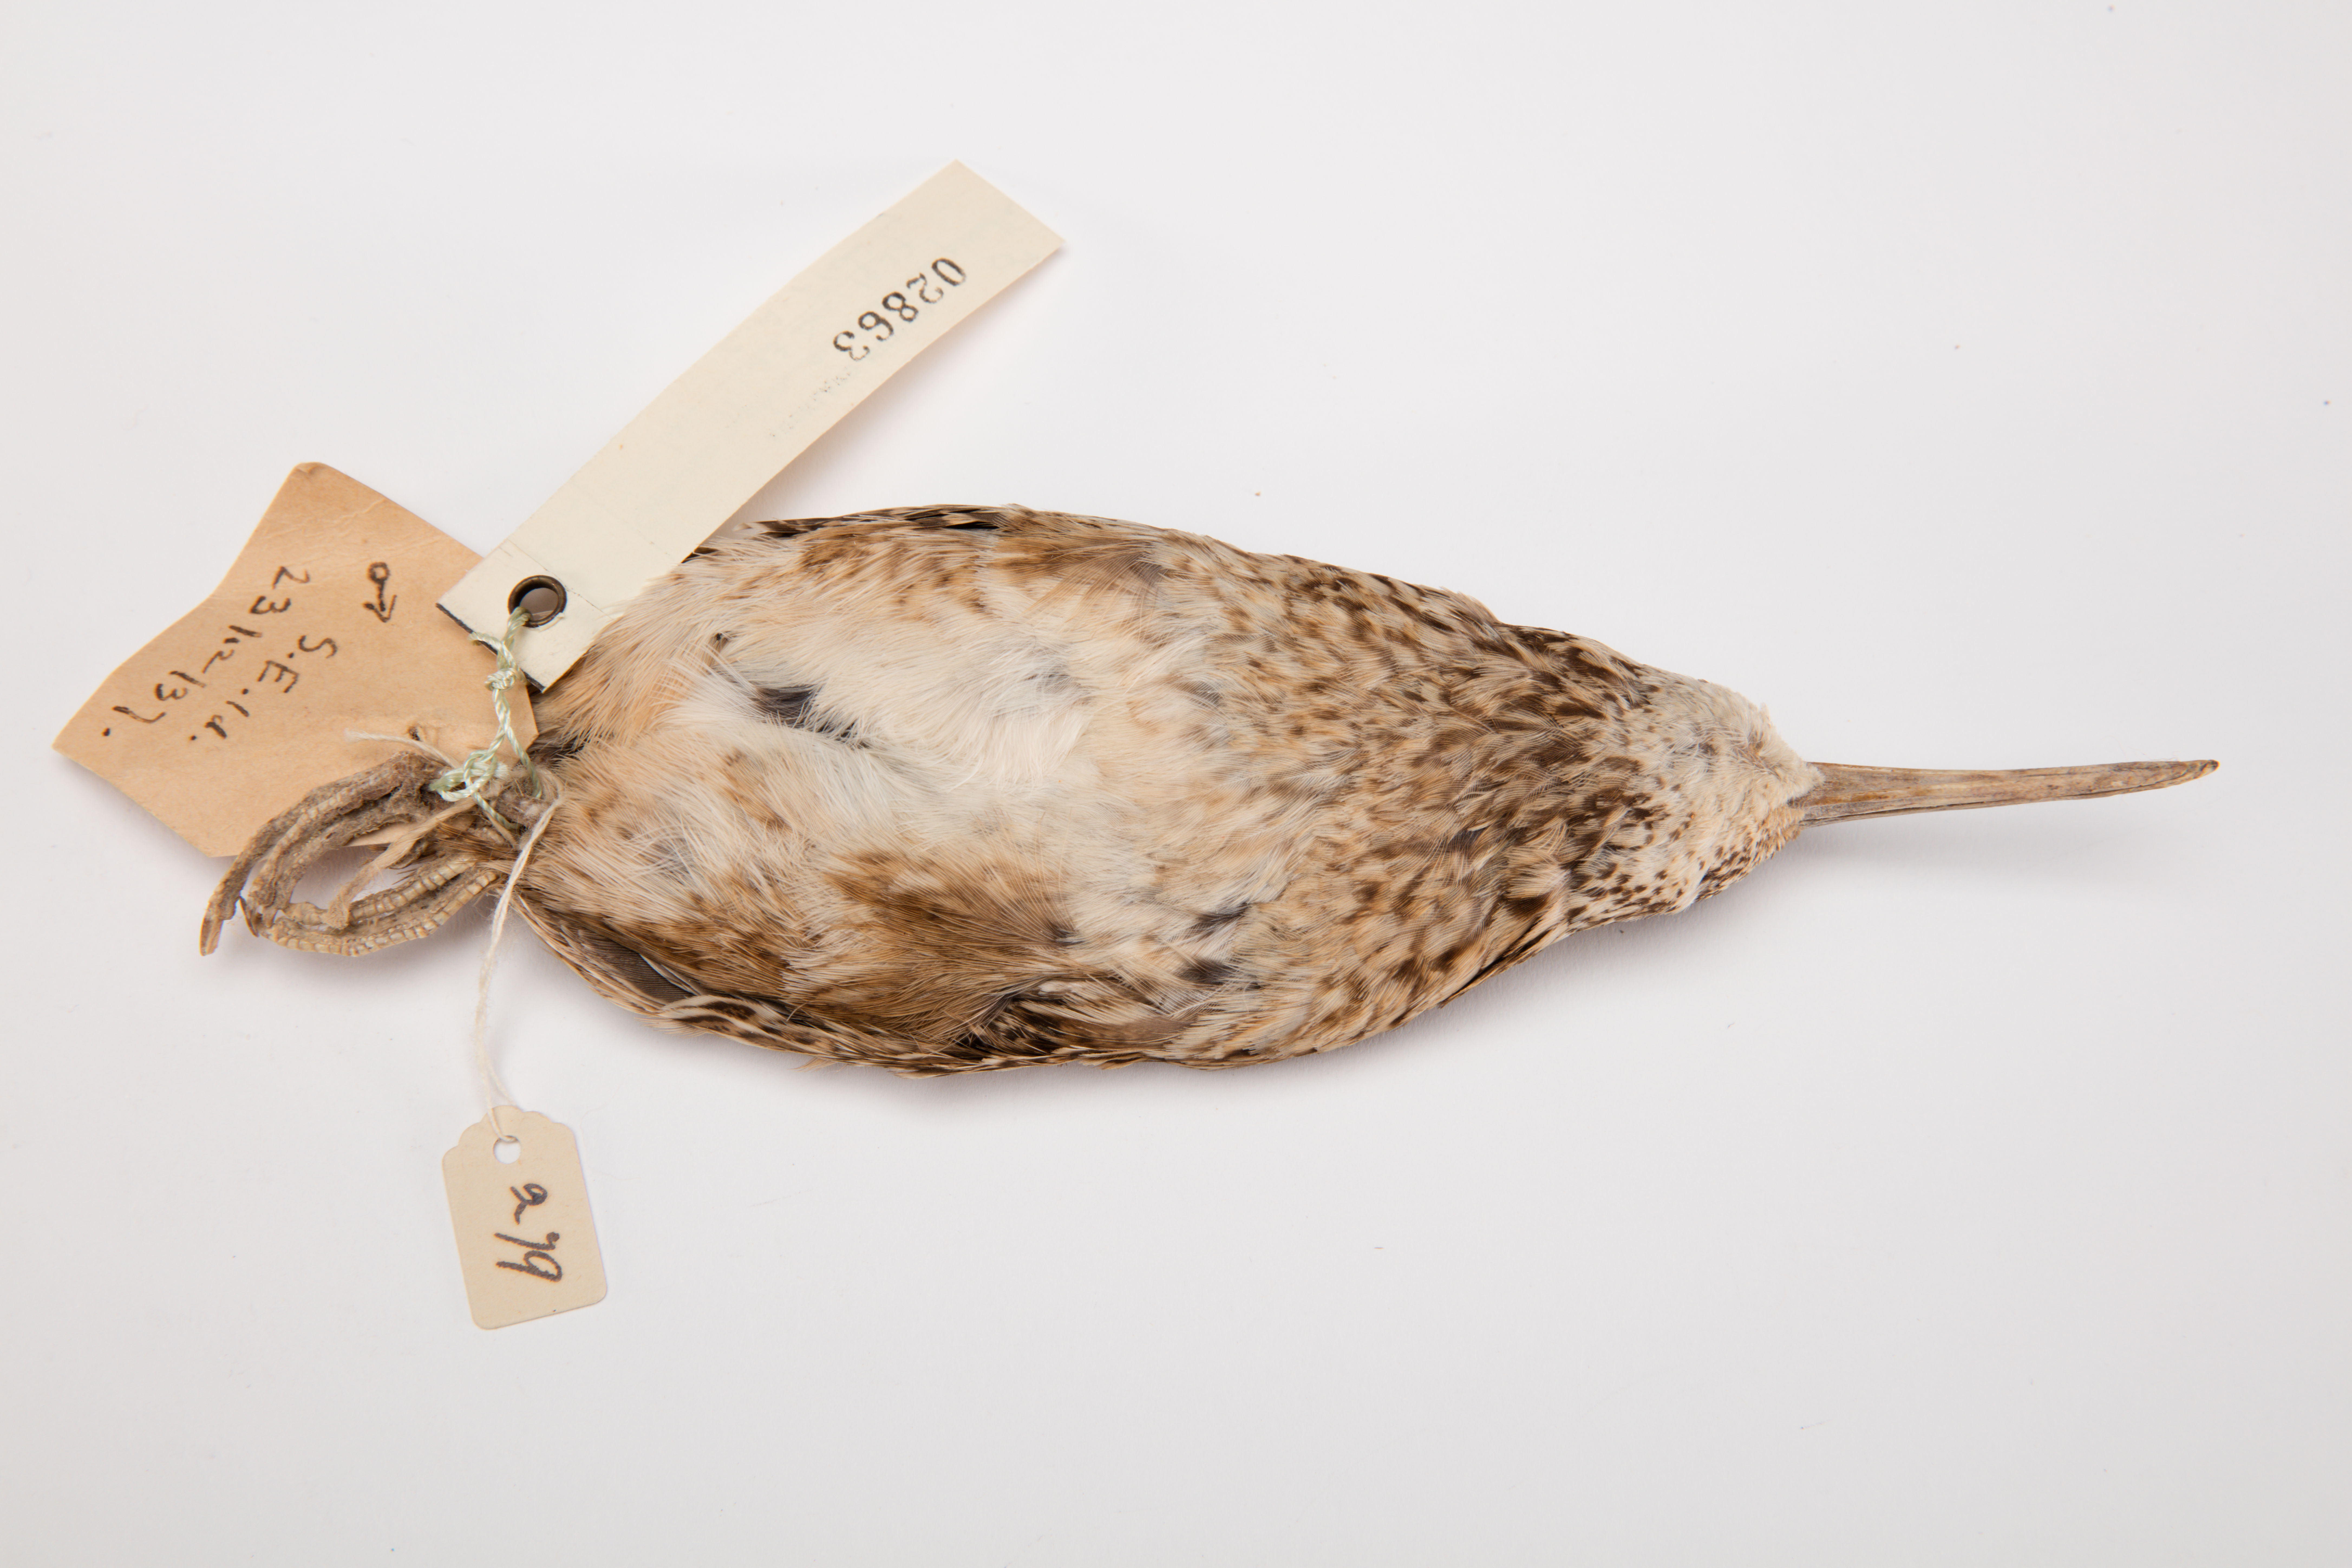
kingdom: Animalia
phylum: Chordata
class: Aves
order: Charadriiformes
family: Scolopacidae
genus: Coenocorypha
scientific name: Coenocorypha pusilla
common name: Chatham snipe
